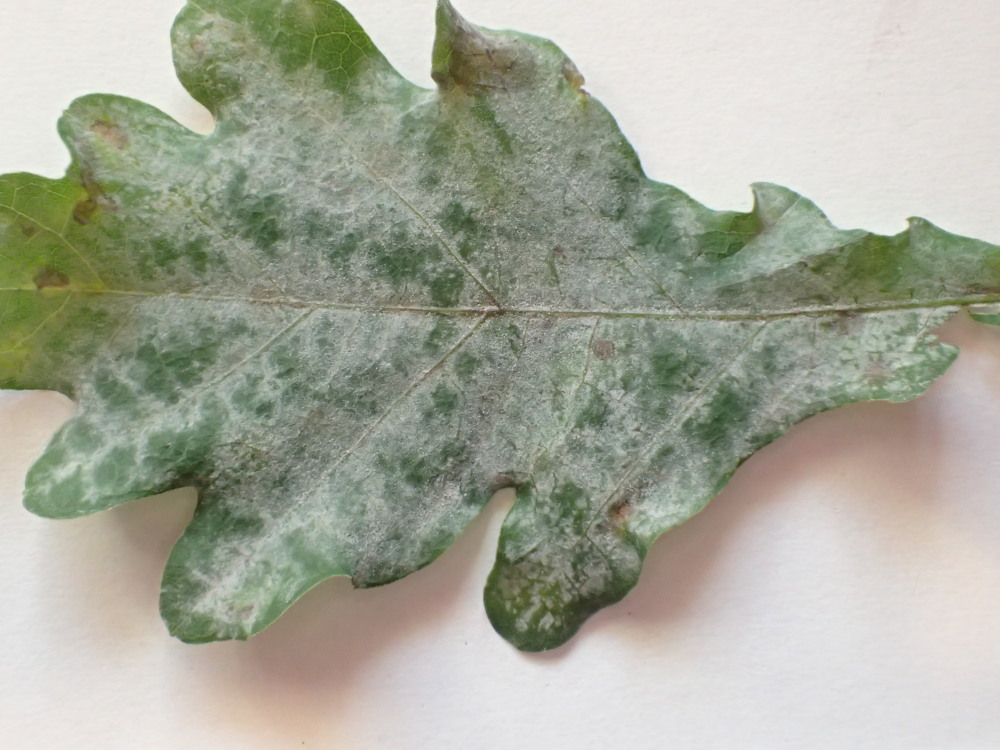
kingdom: Fungi
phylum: Ascomycota
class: Leotiomycetes
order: Helotiales
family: Erysiphaceae
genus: Erysiphe
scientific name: Erysiphe alphitoides
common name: ege-meldug
